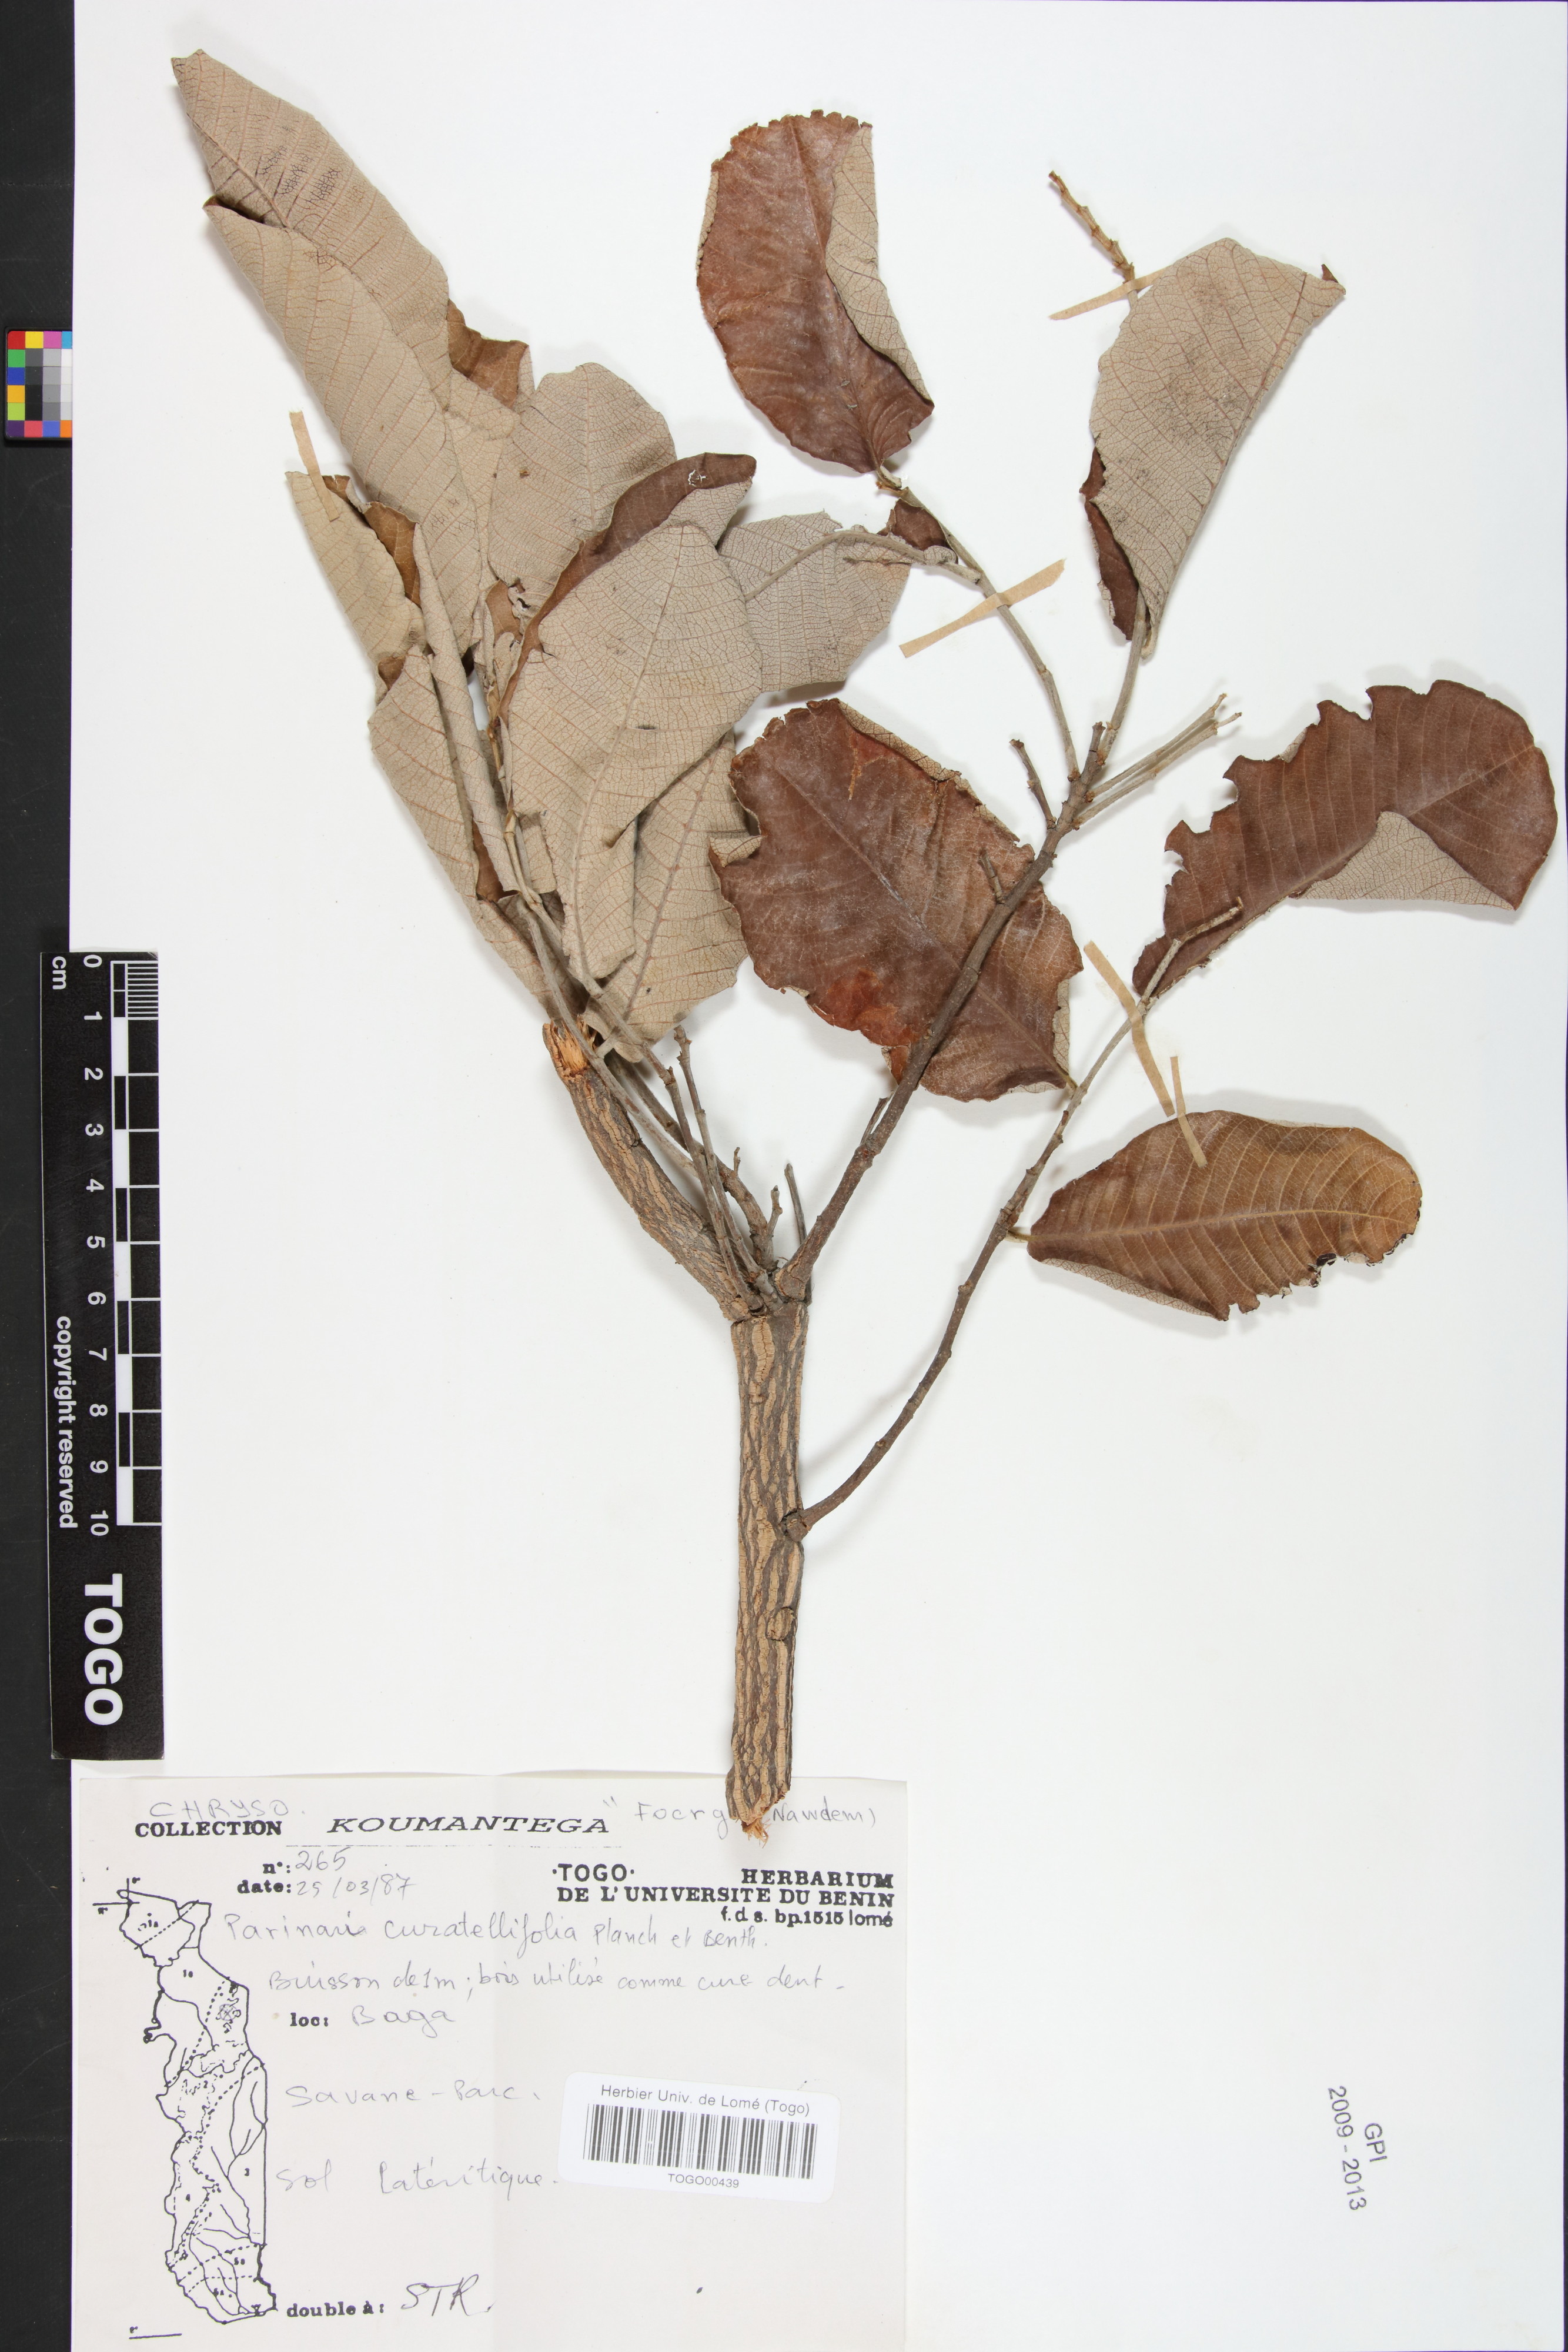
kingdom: Plantae
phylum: Tracheophyta
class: Magnoliopsida
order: Malpighiales
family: Chrysobalanaceae
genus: Maranthes
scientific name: Maranthes chrysophylla
